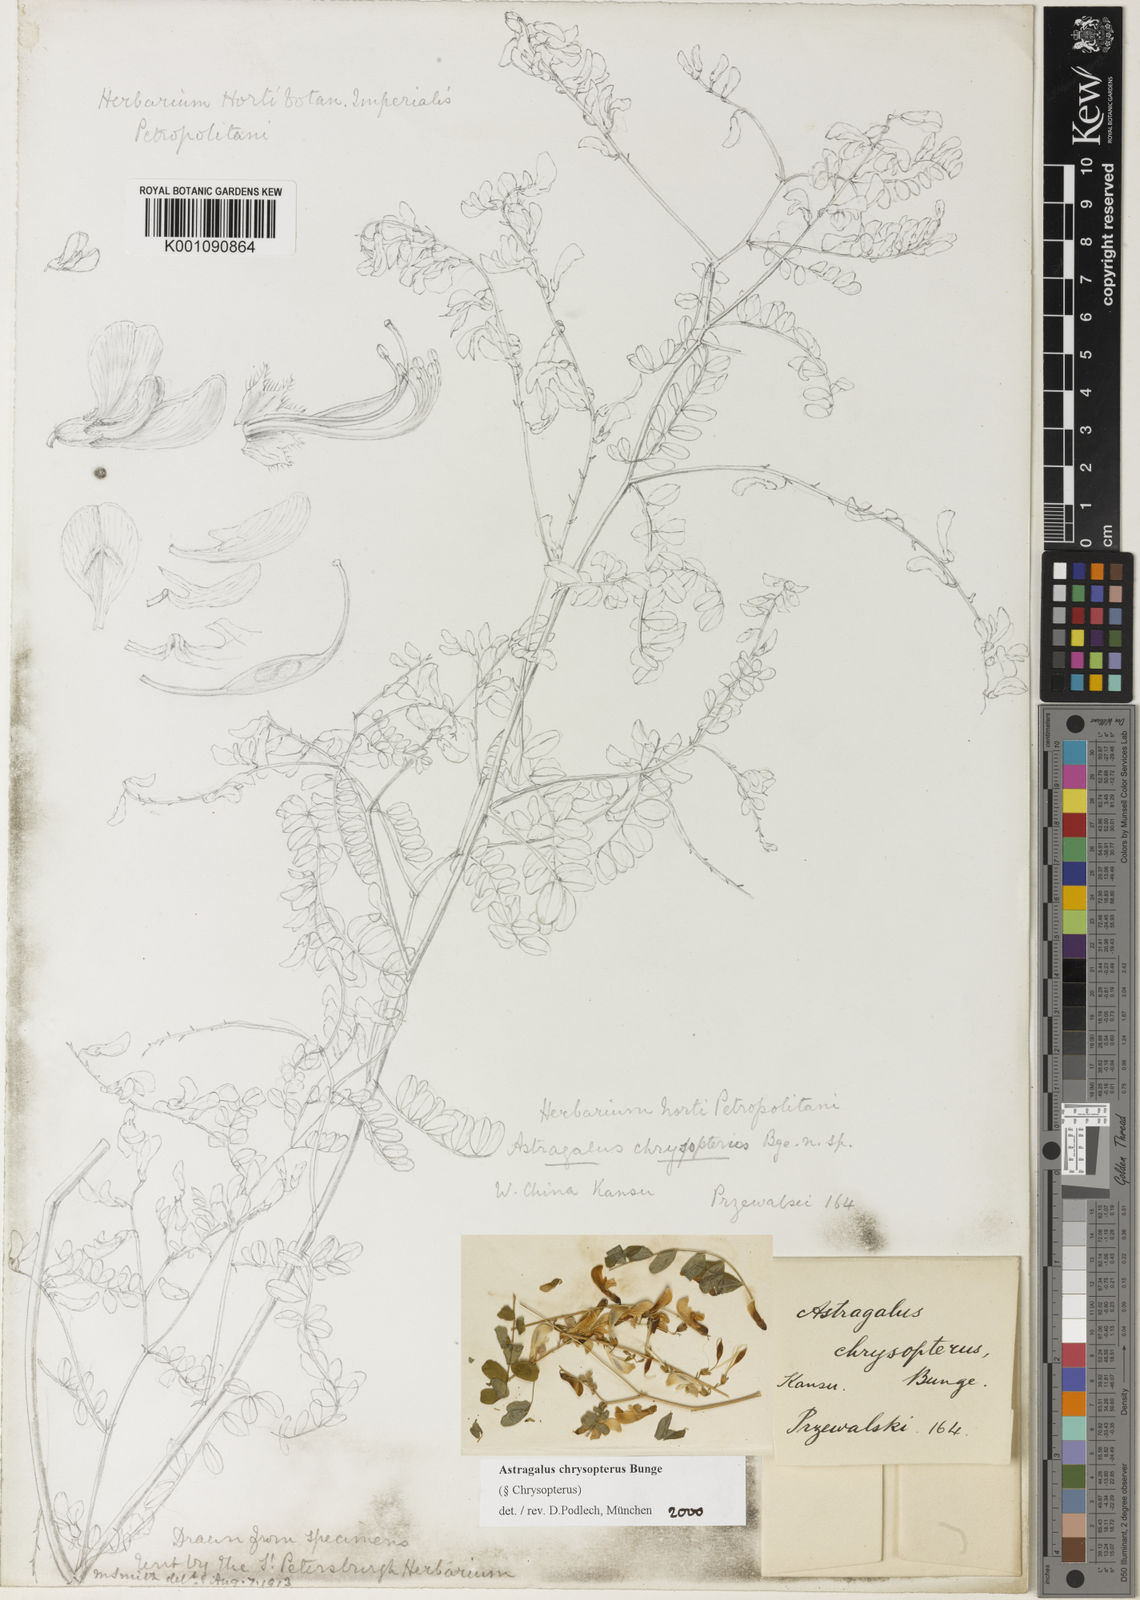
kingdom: Plantae
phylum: Tracheophyta
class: Magnoliopsida
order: Fabales
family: Fabaceae
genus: Astragalus
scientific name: Astragalus
